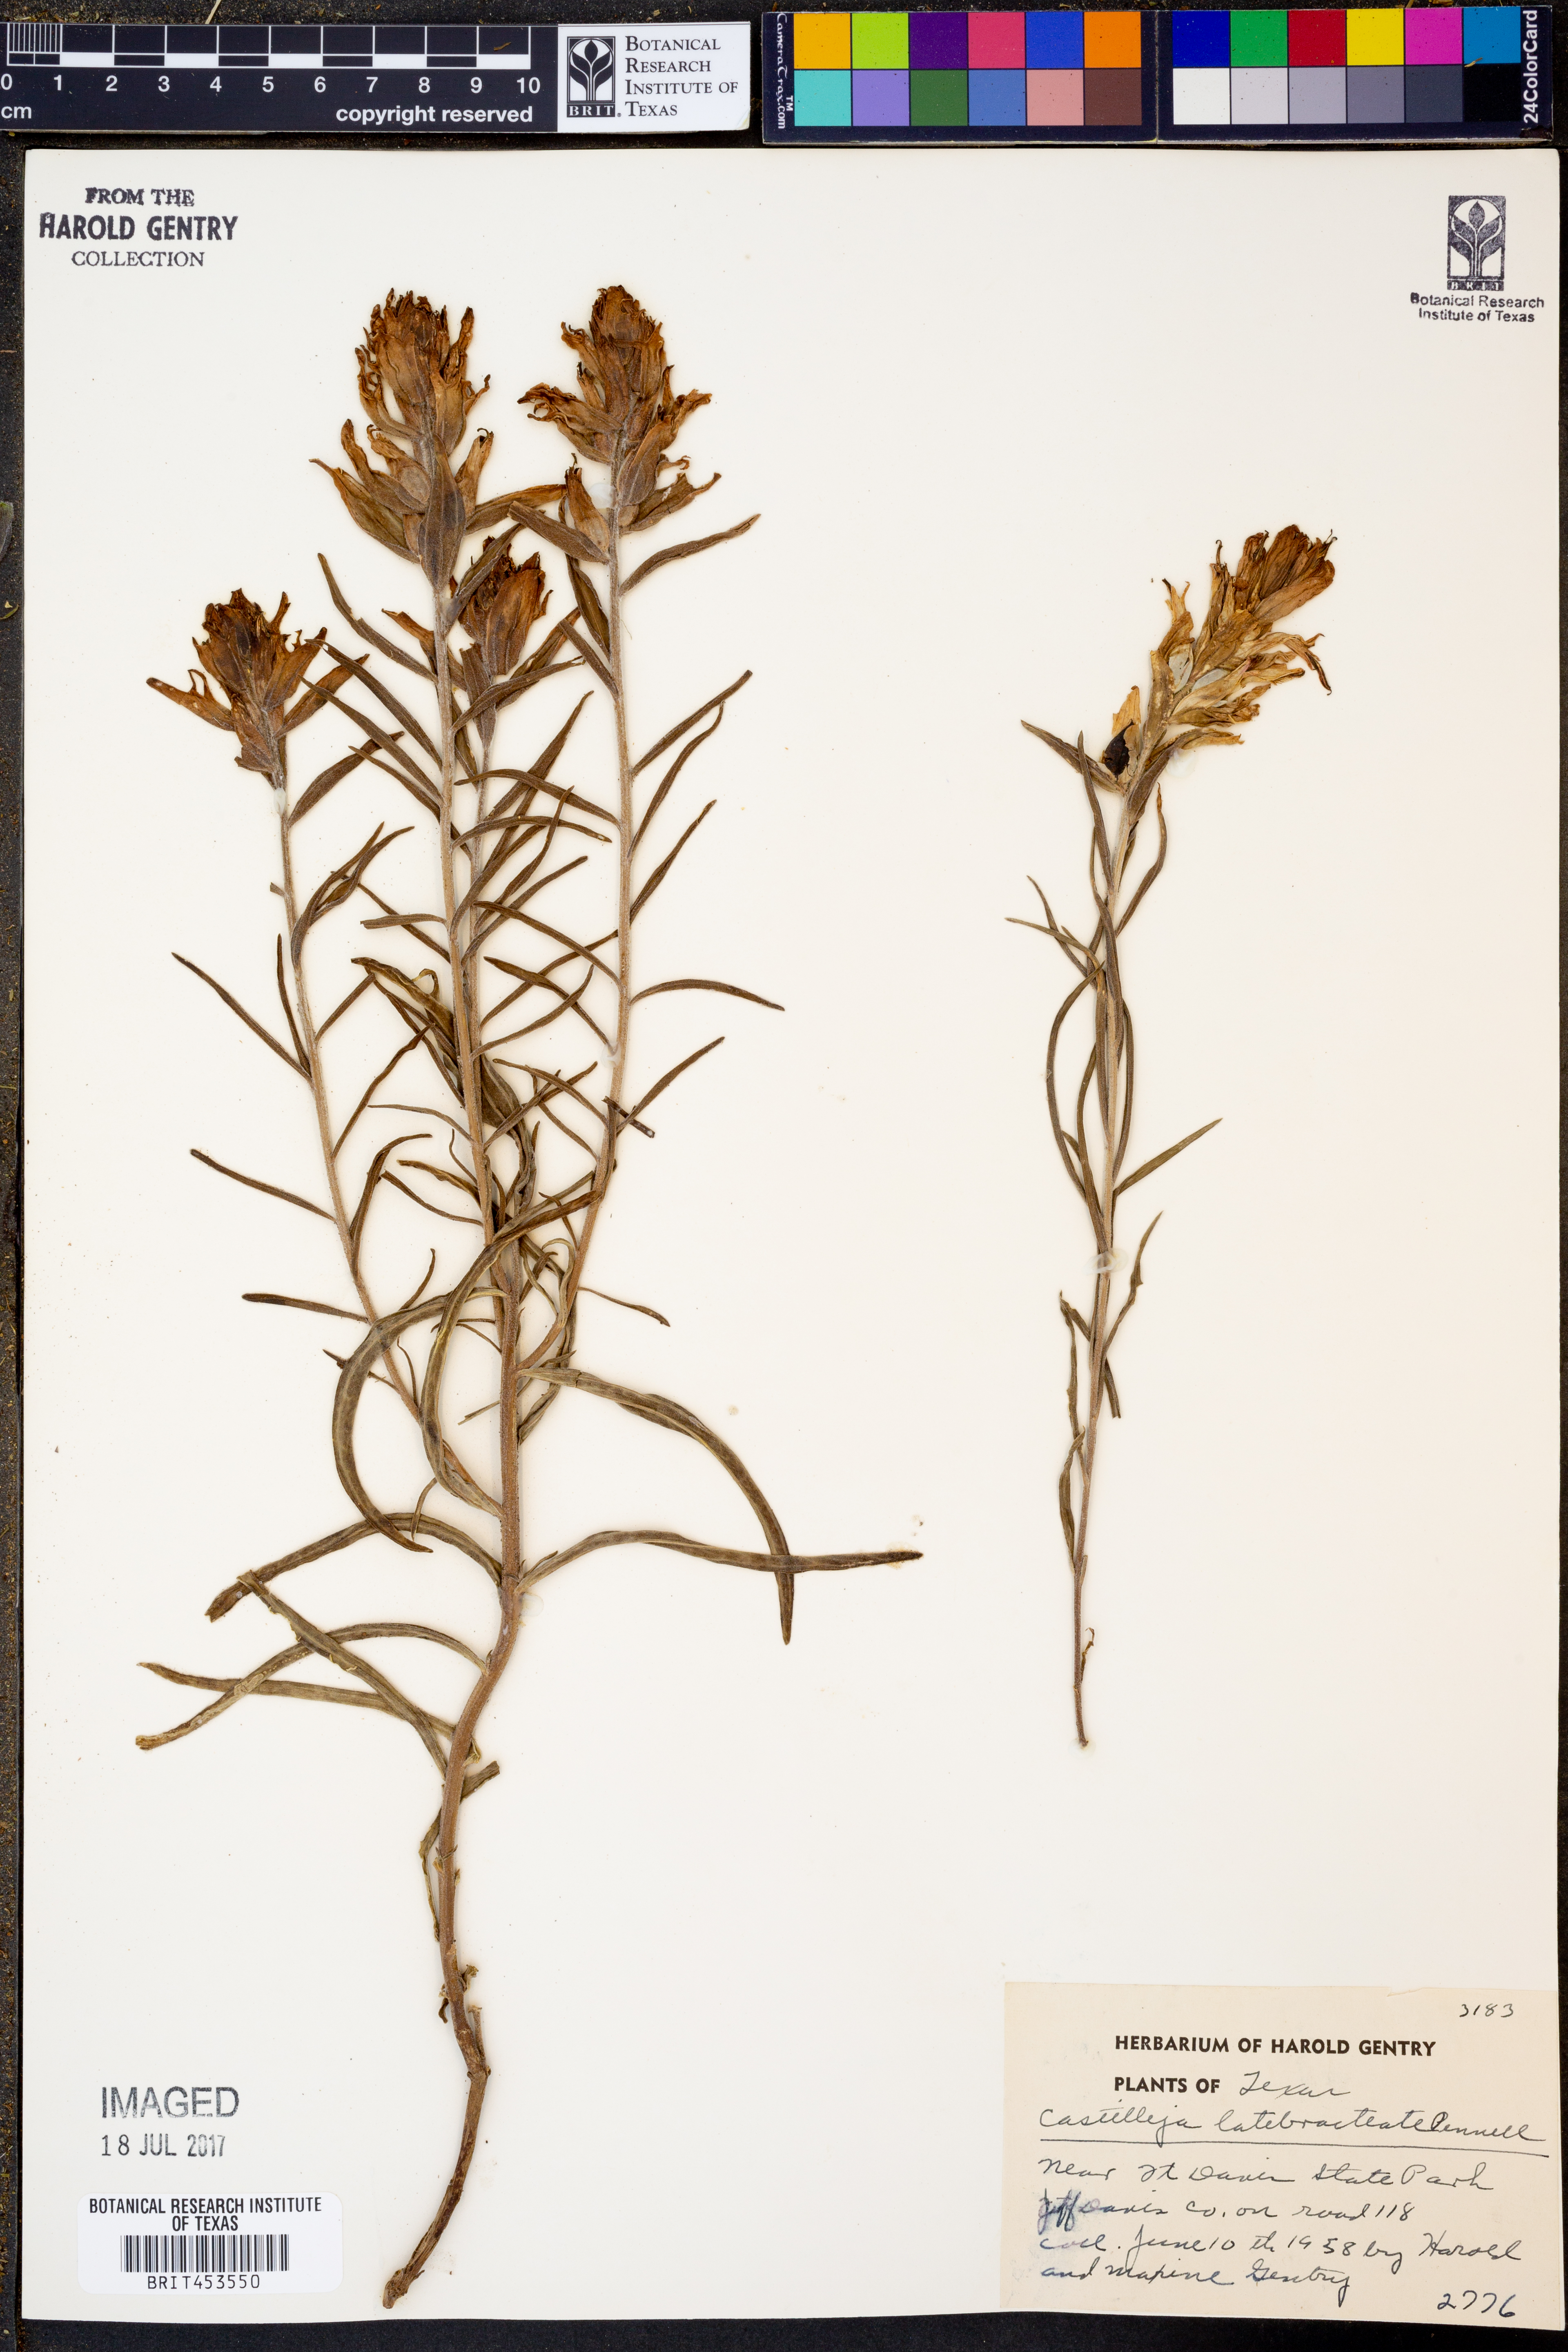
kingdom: Plantae
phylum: Tracheophyta
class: Magnoliopsida
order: Lamiales
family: Orobanchaceae
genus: Castilleja
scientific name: Castilleja rigida
